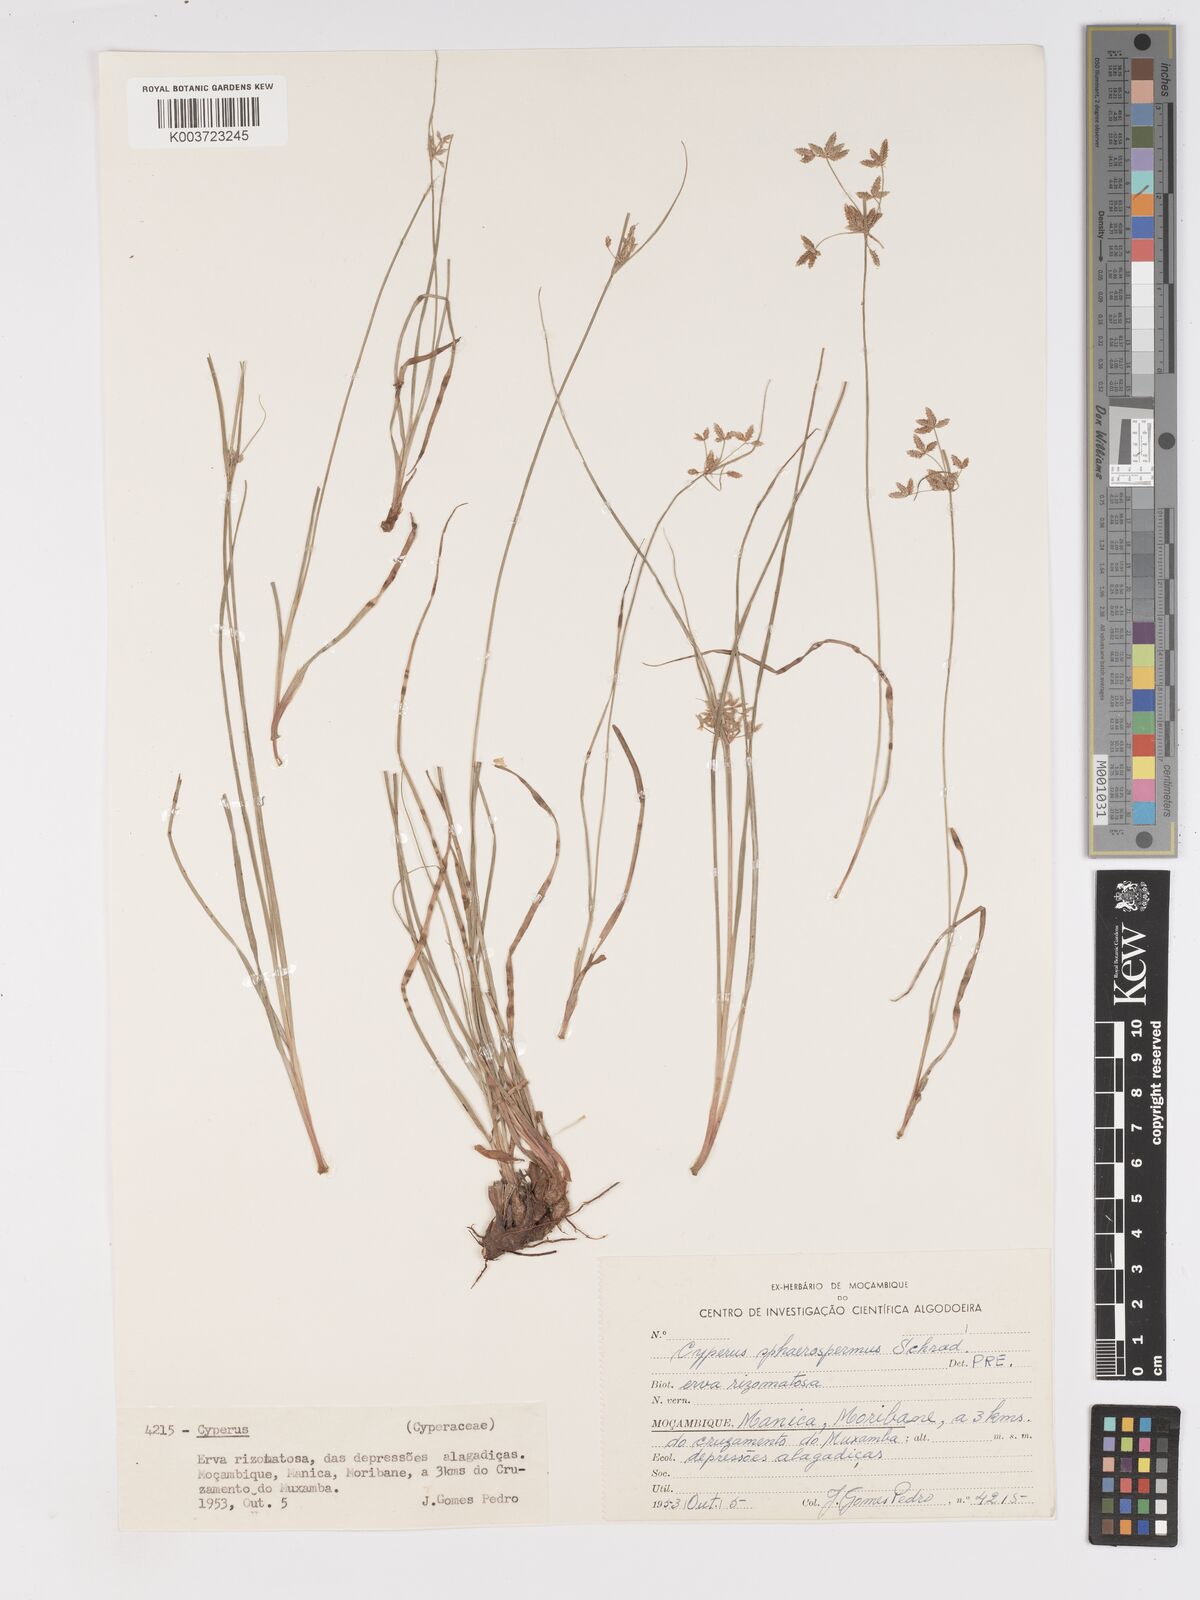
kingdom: Plantae
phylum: Tracheophyta
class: Liliopsida
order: Poales
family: Cyperaceae
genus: Cyperus
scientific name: Cyperus denudatus
